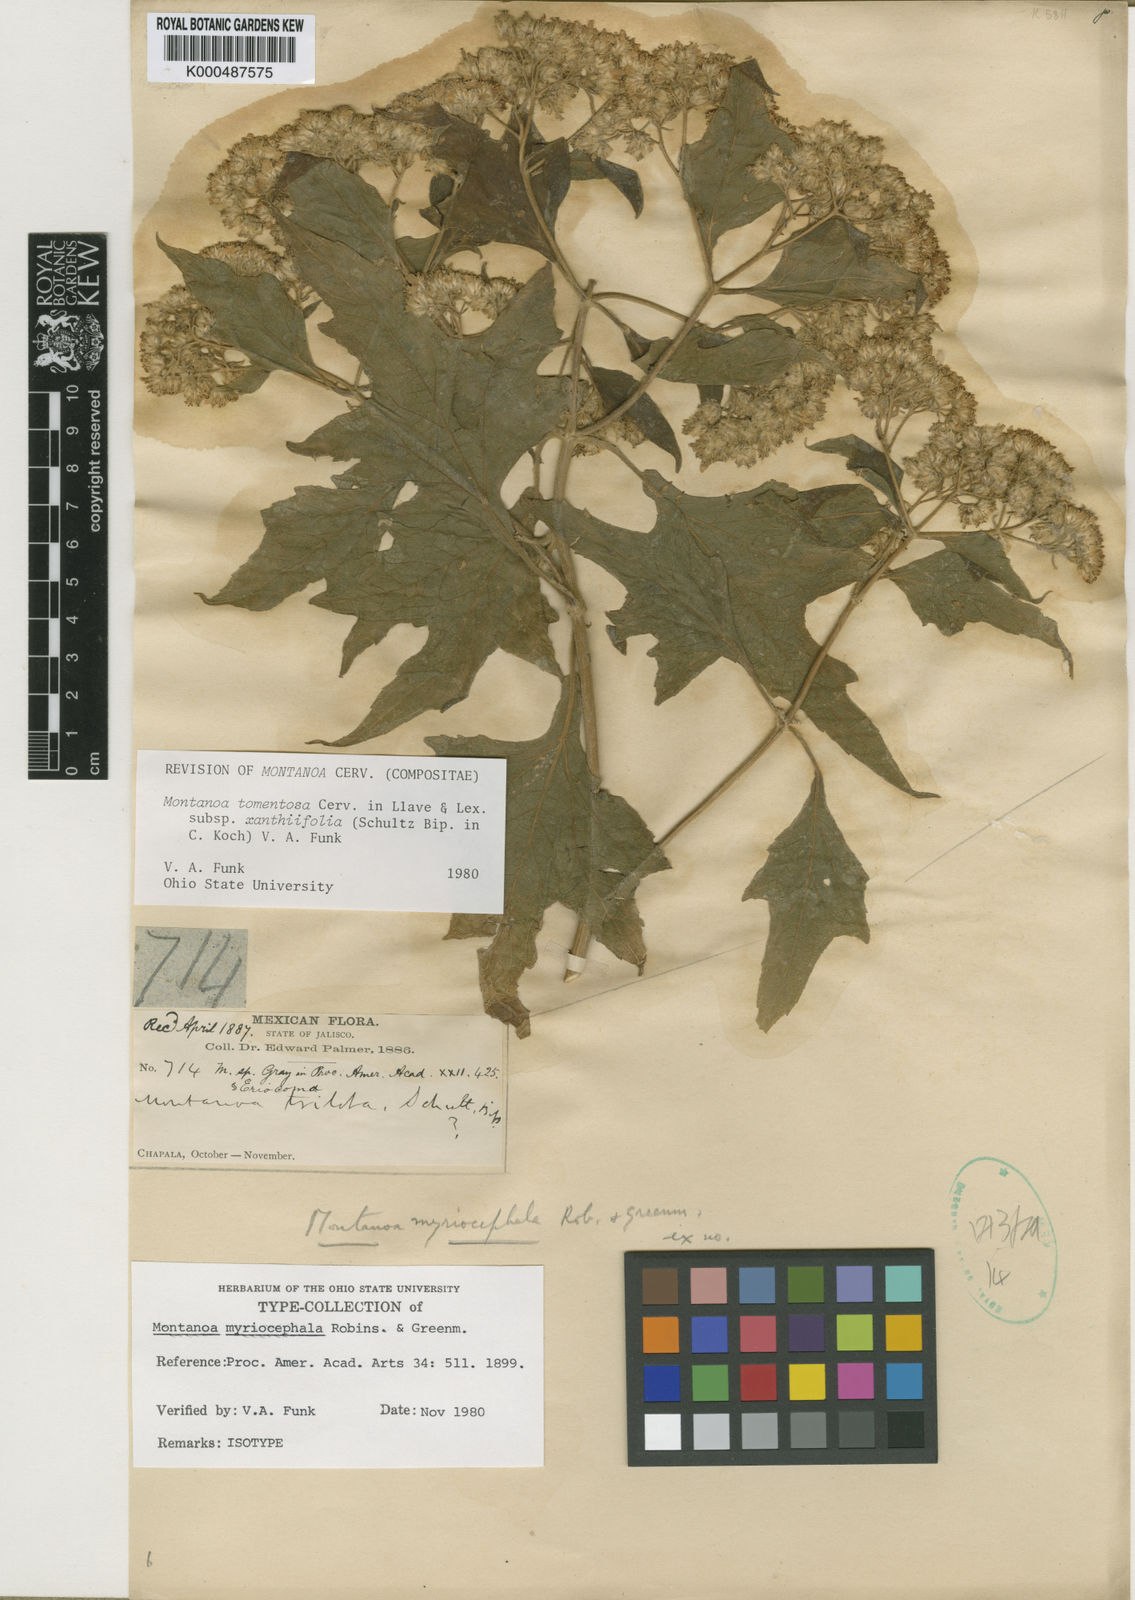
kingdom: Plantae
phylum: Tracheophyta
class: Magnoliopsida
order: Asterales
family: Asteraceae
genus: Montanoa
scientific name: Montanoa tomentosa
